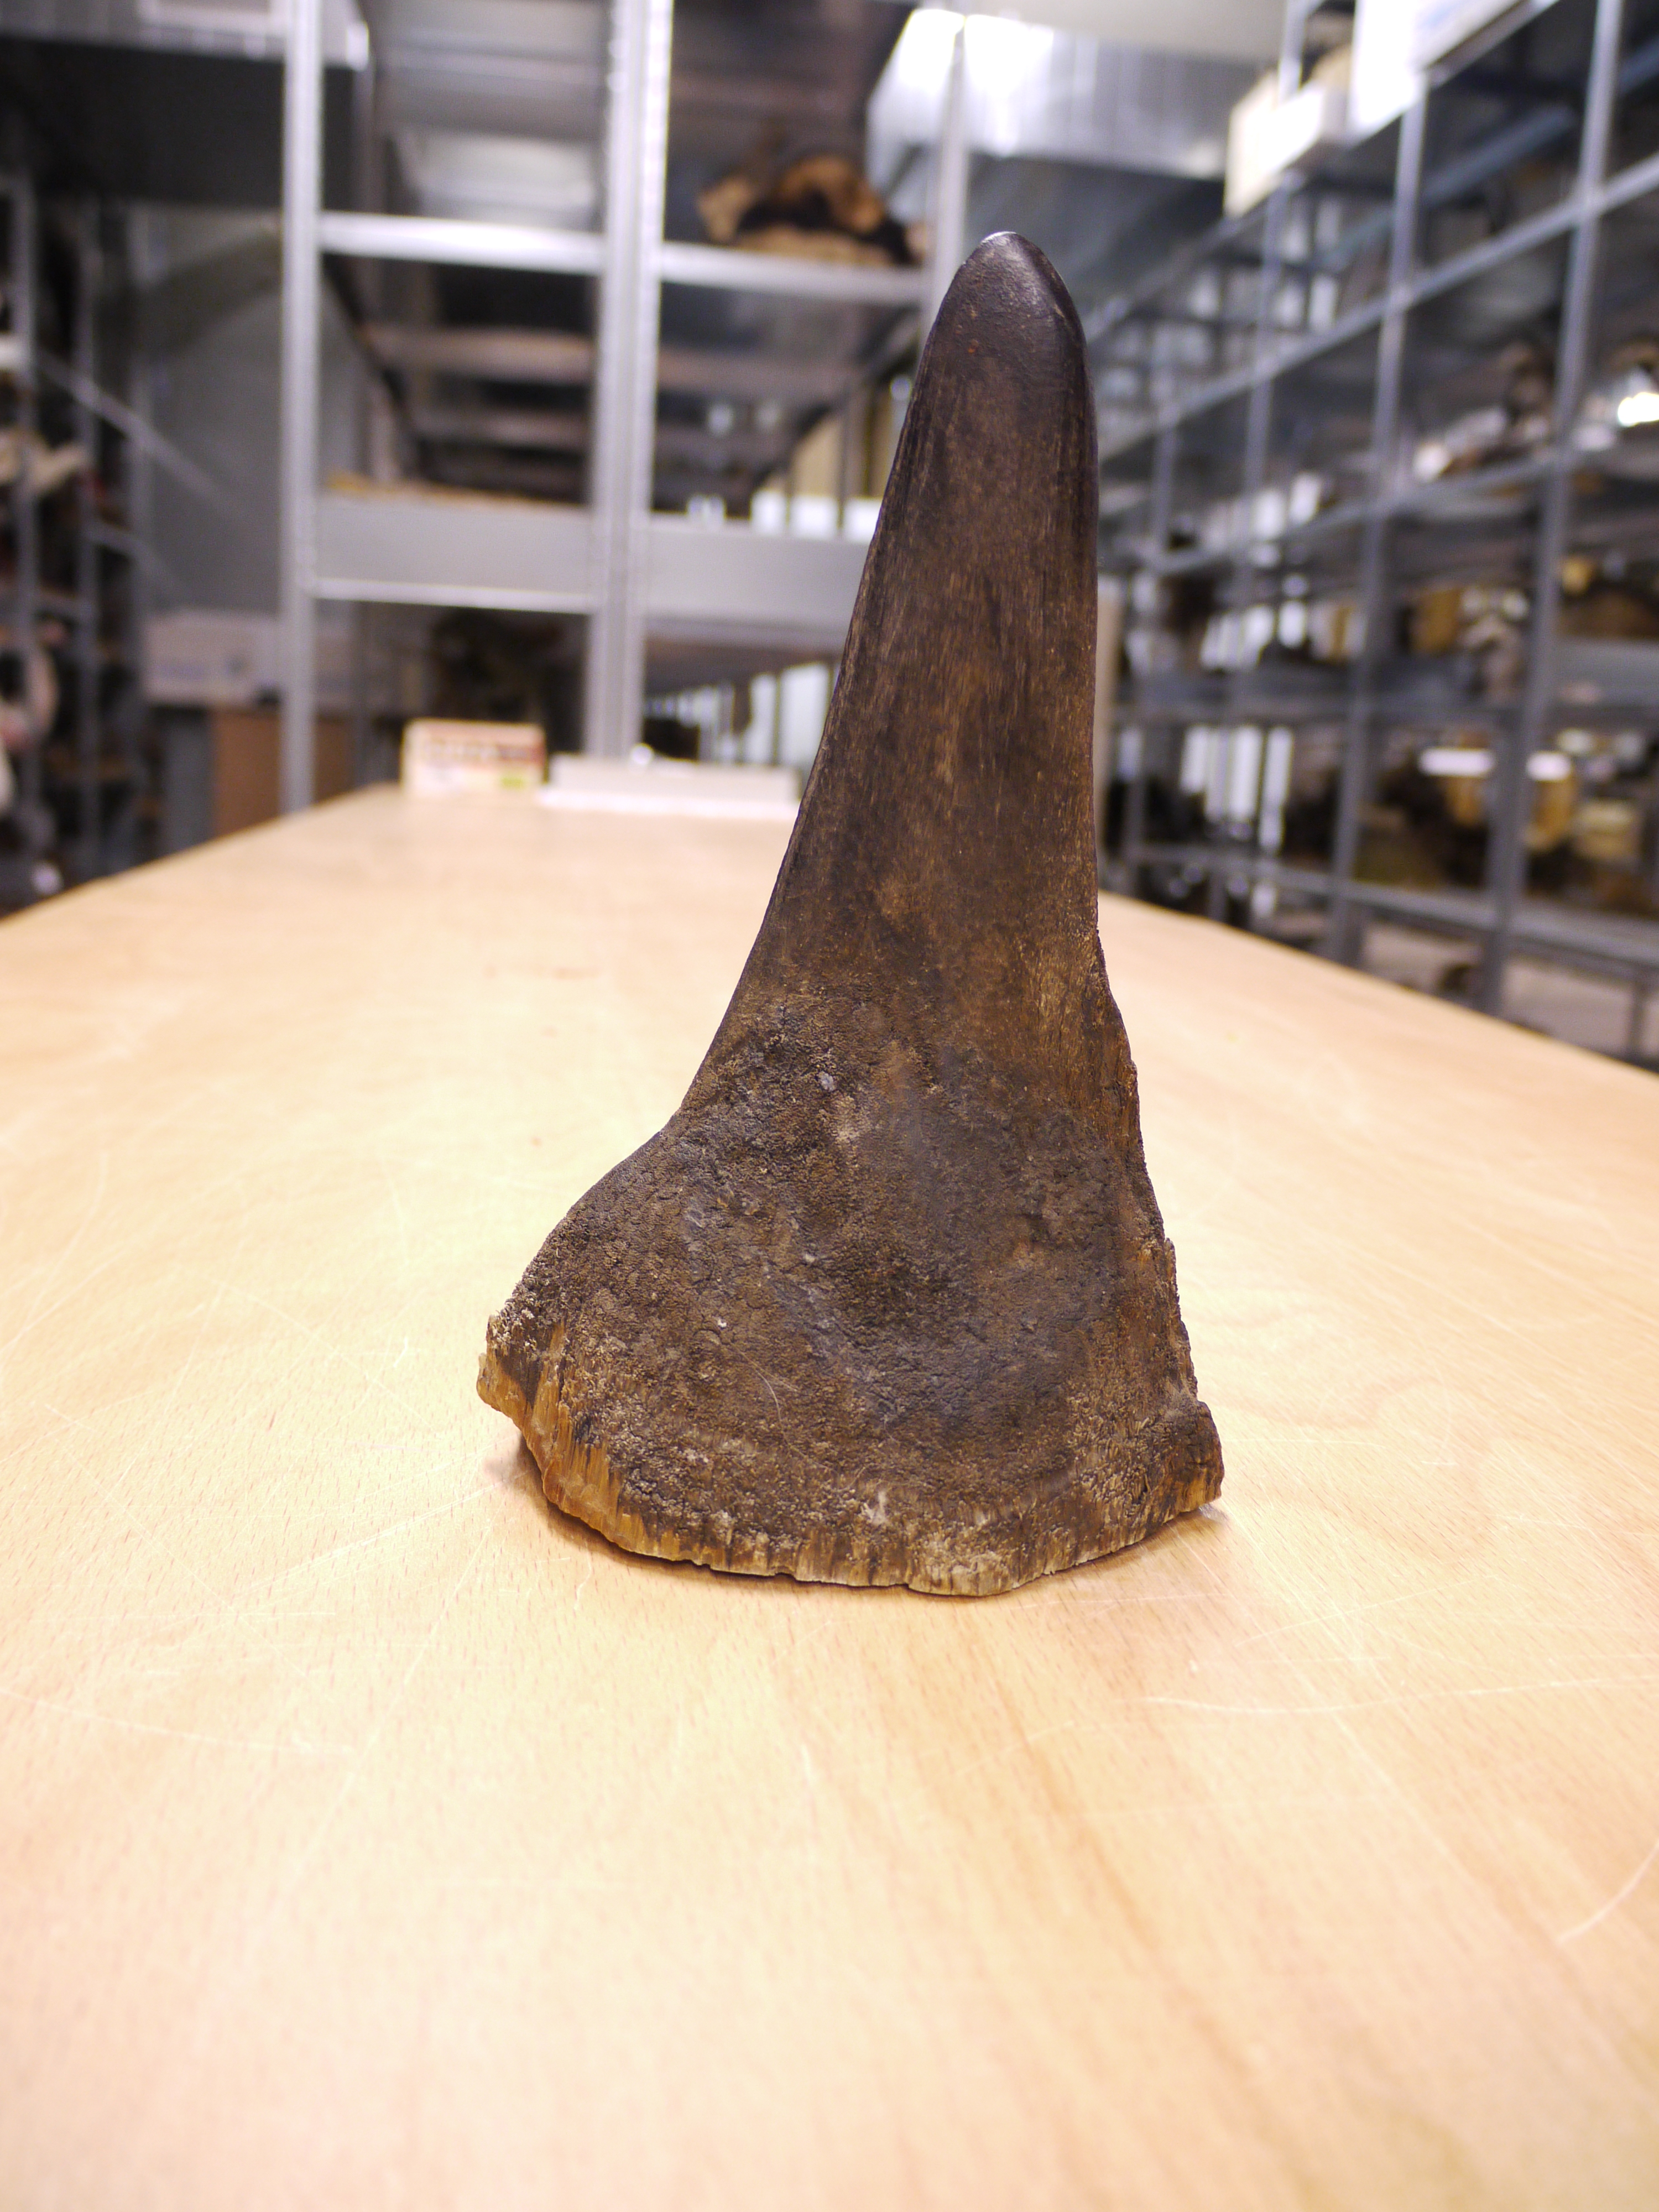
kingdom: Animalia
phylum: Chordata
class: Mammalia
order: Perissodactyla
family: Rhinocerotidae
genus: Diceros
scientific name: Diceros bicornis
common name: Black rhinoceros
